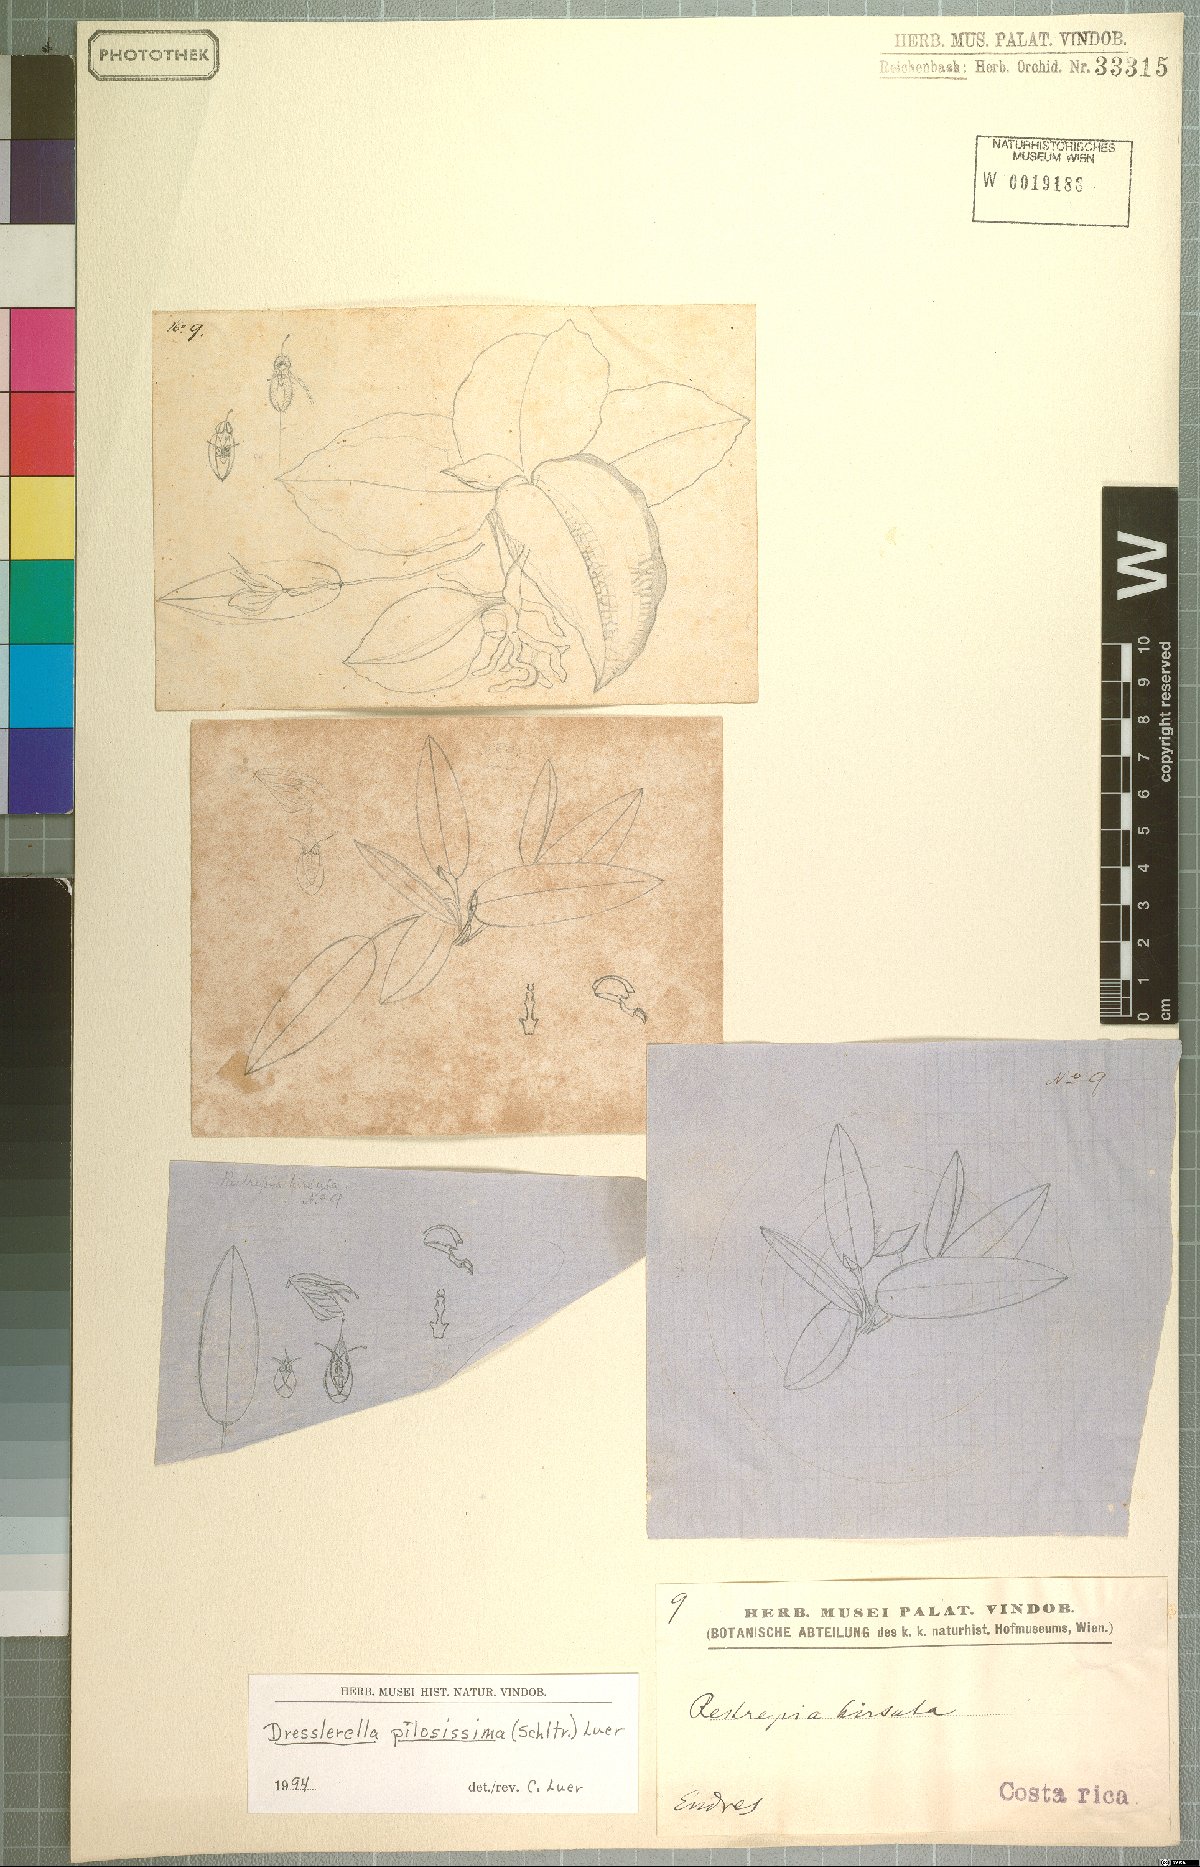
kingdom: Plantae
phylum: Tracheophyta
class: Liliopsida
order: Asparagales
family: Orchidaceae
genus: Dresslerella
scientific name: Dresslerella pilosissima
